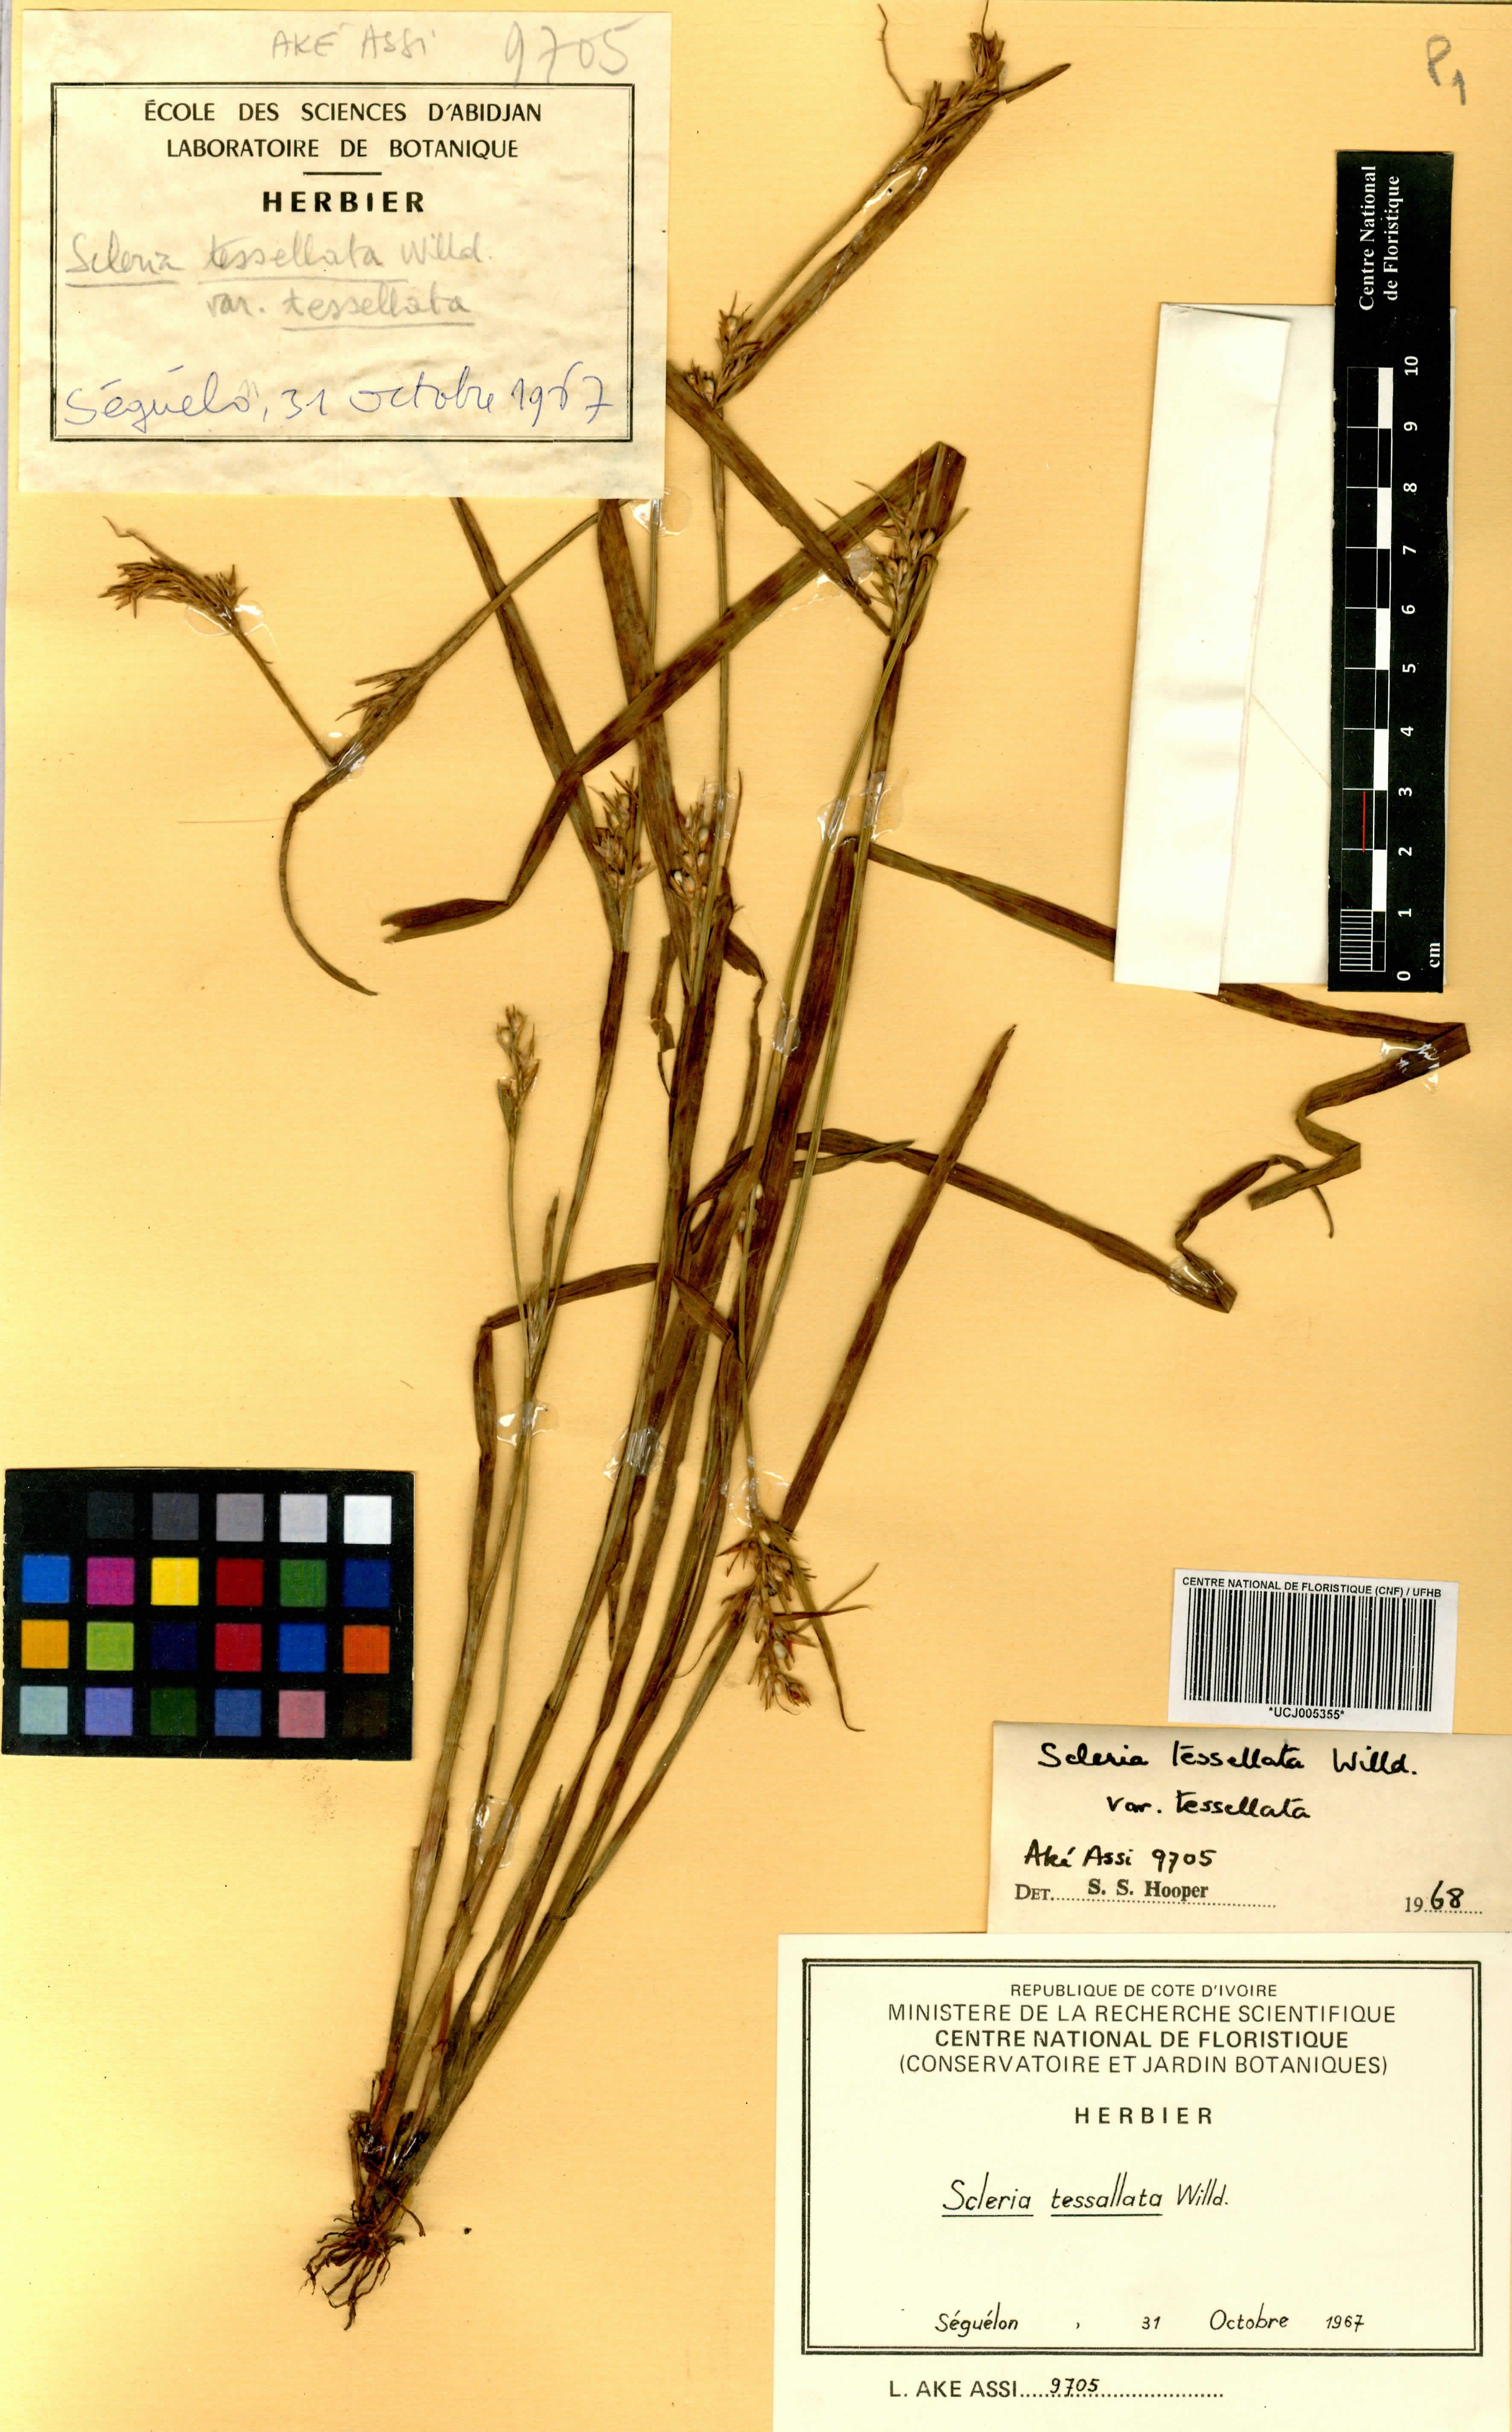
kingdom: Plantae
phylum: Tracheophyta
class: Liliopsida
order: Poales
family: Cyperaceae
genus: Scleria
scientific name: Scleria tessellata
